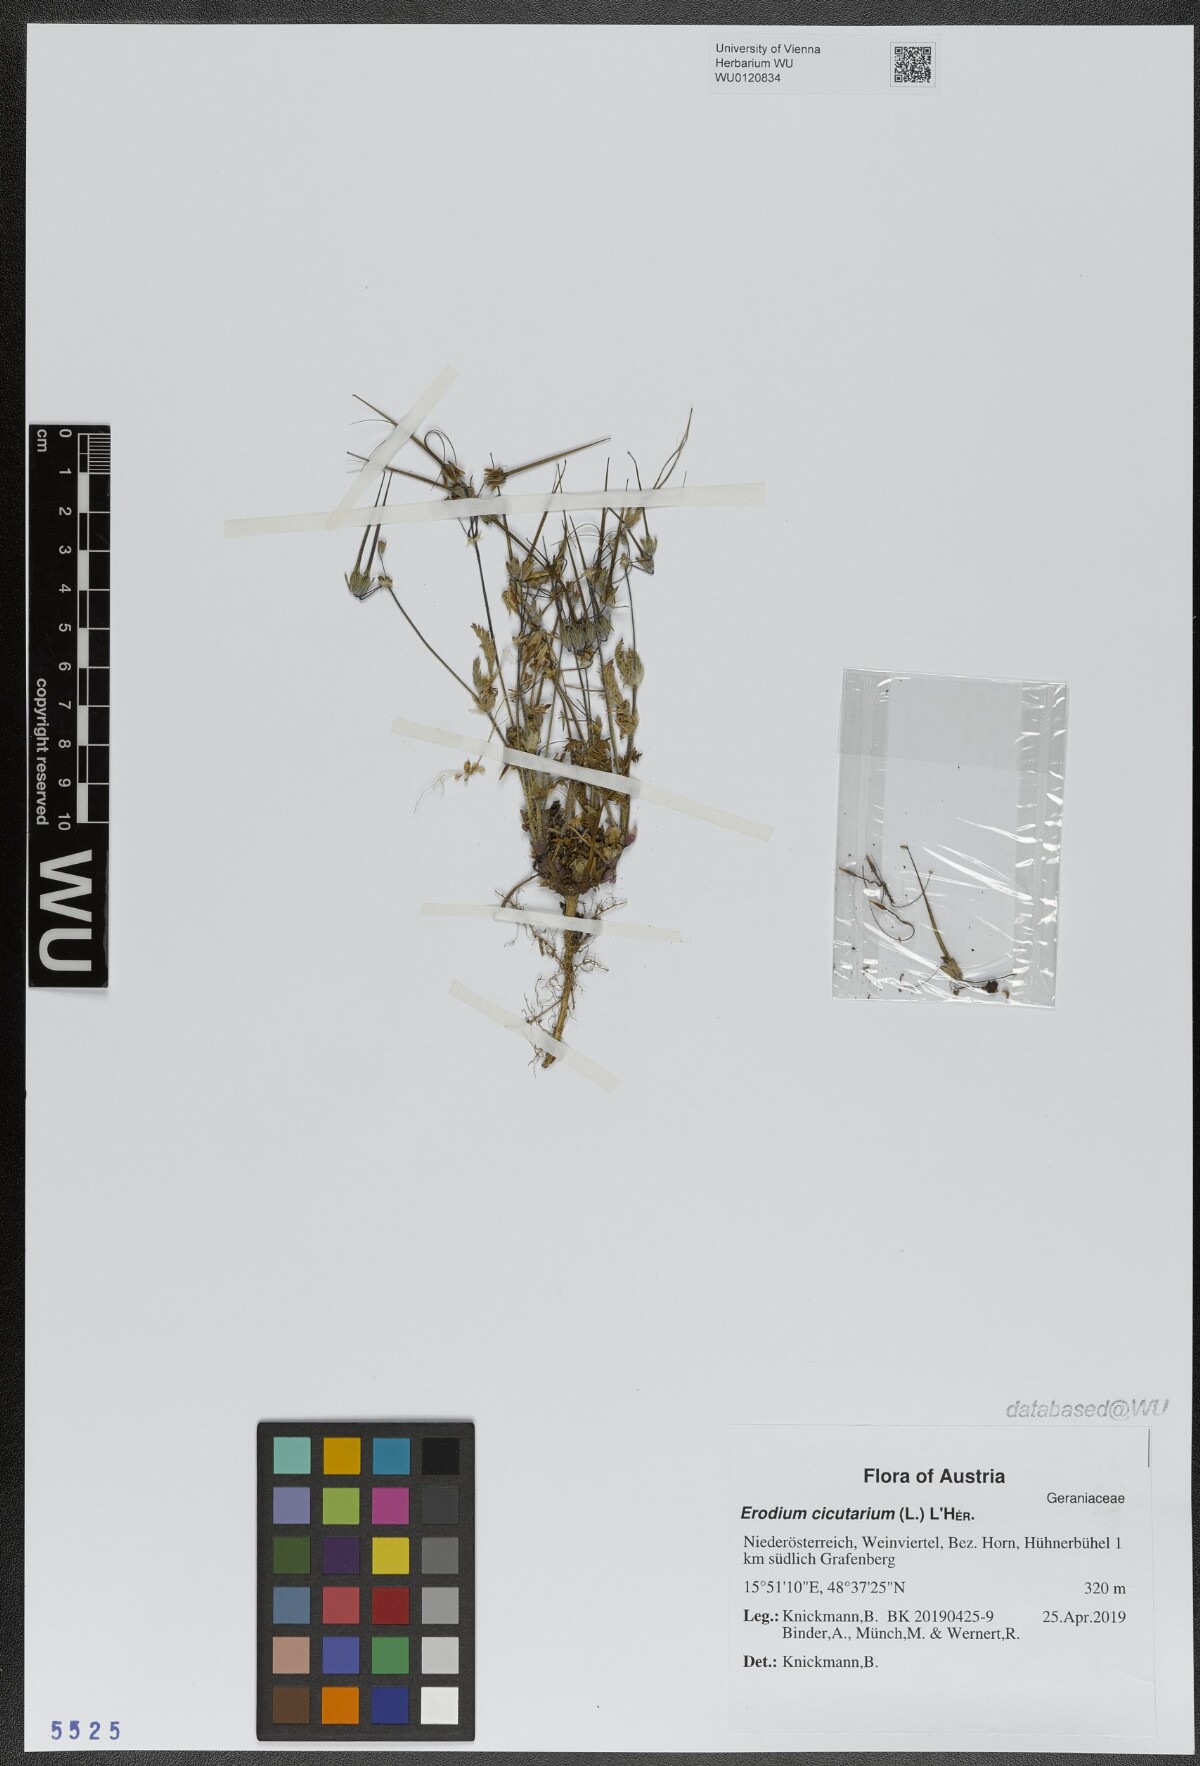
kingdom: Plantae
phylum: Tracheophyta
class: Magnoliopsida
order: Geraniales
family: Geraniaceae
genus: Erodium
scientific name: Erodium cicutarium
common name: Common stork's-bill
